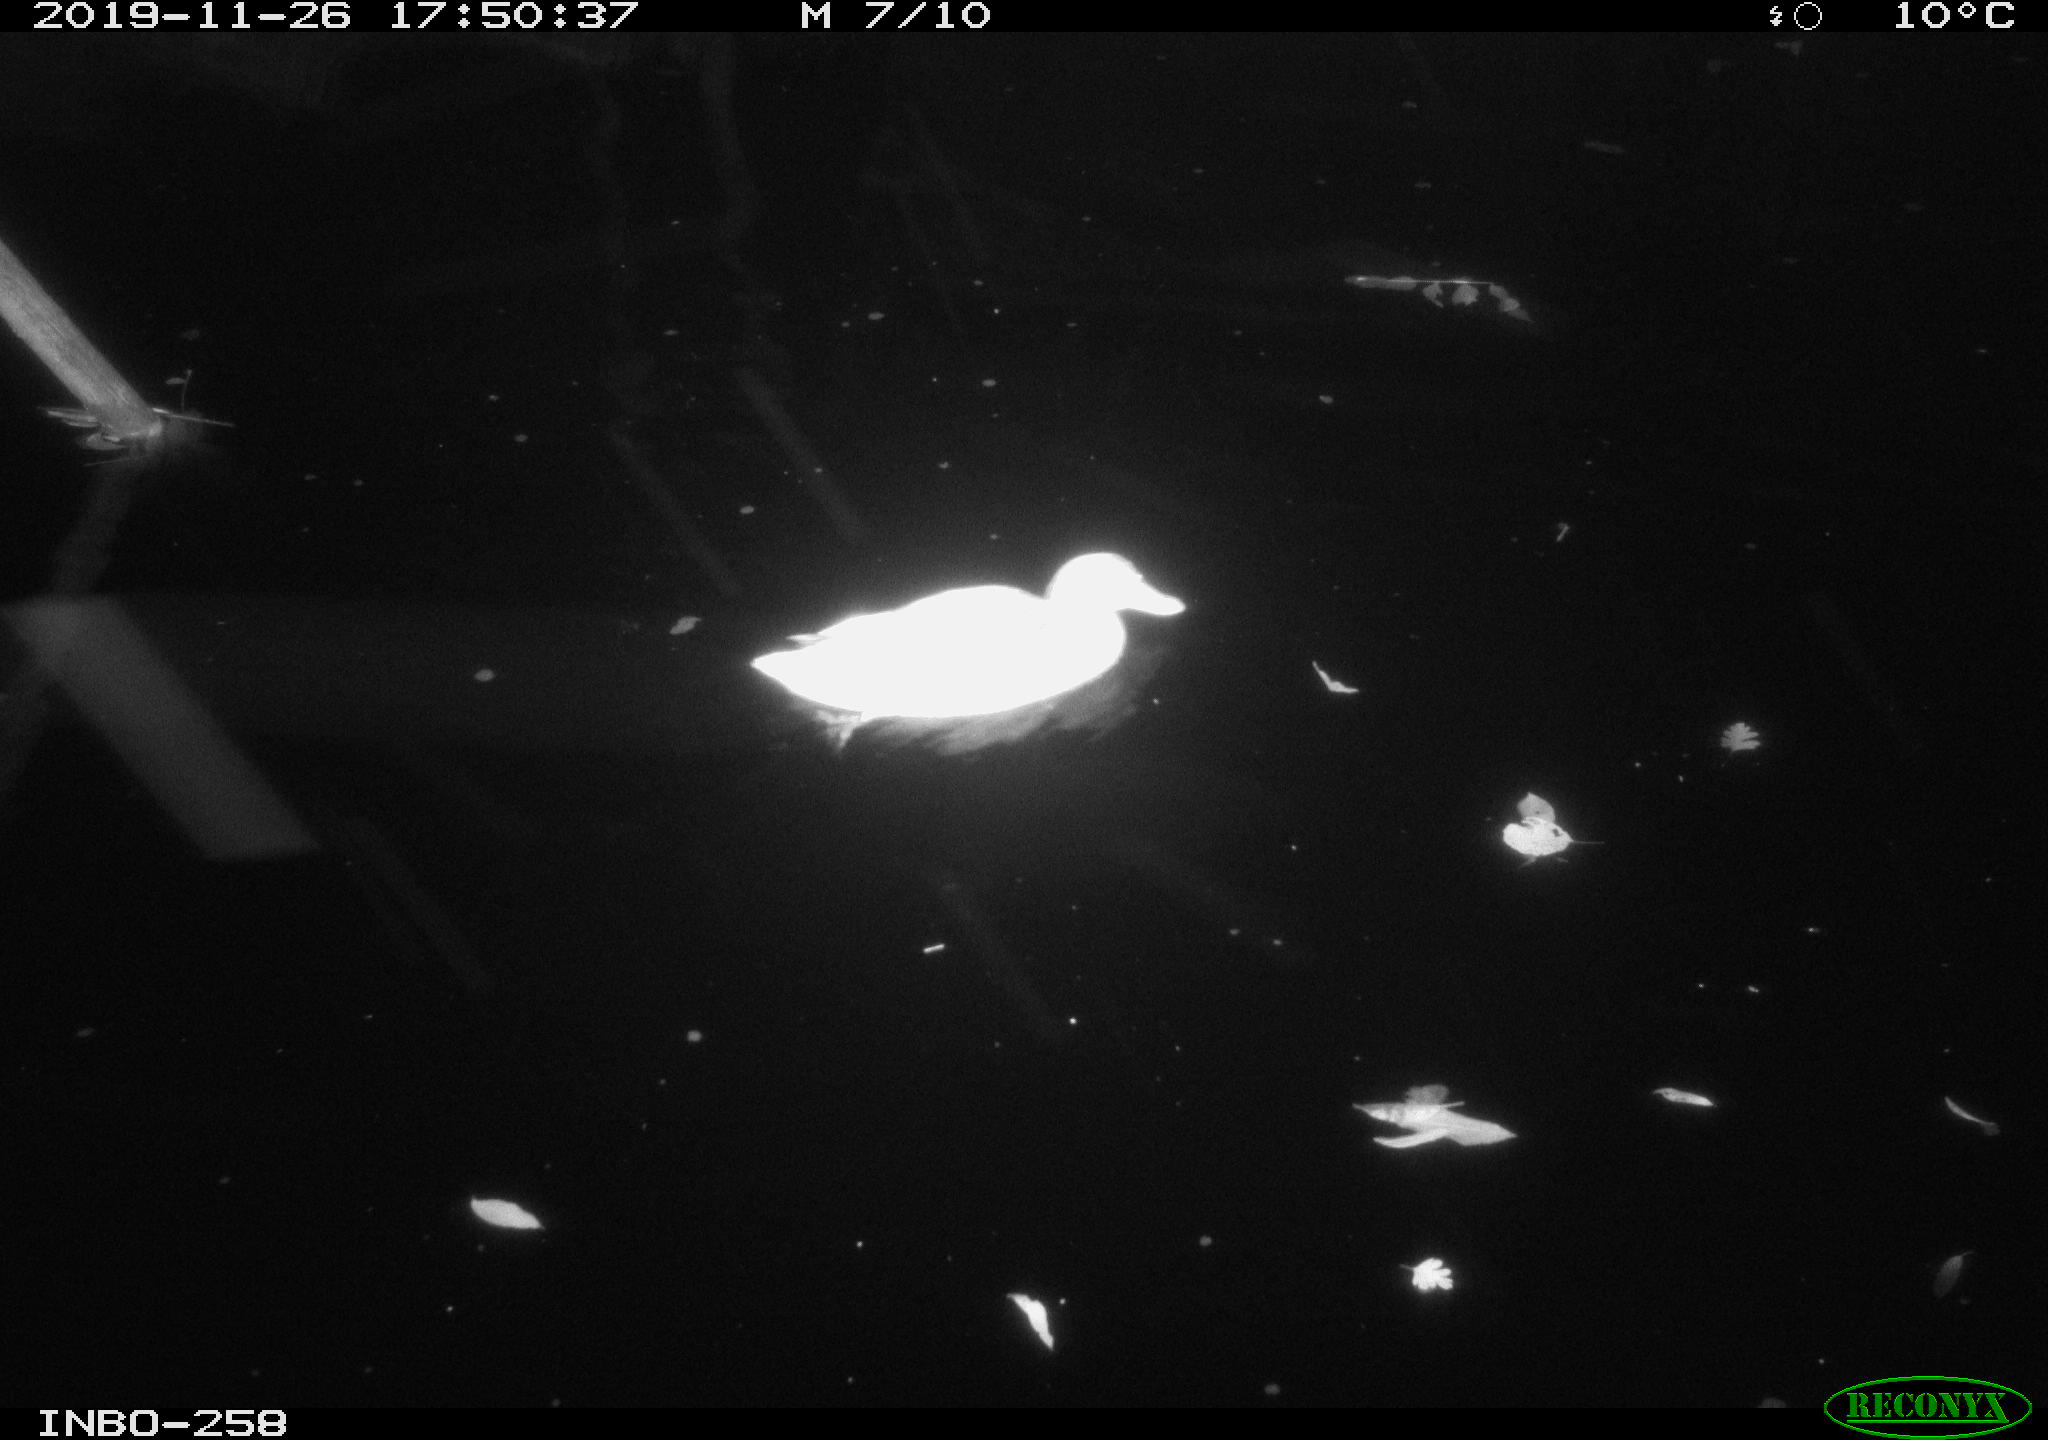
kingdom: Animalia
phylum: Chordata
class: Aves
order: Anseriformes
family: Anatidae
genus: Anas
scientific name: Anas platyrhynchos
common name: Mallard
